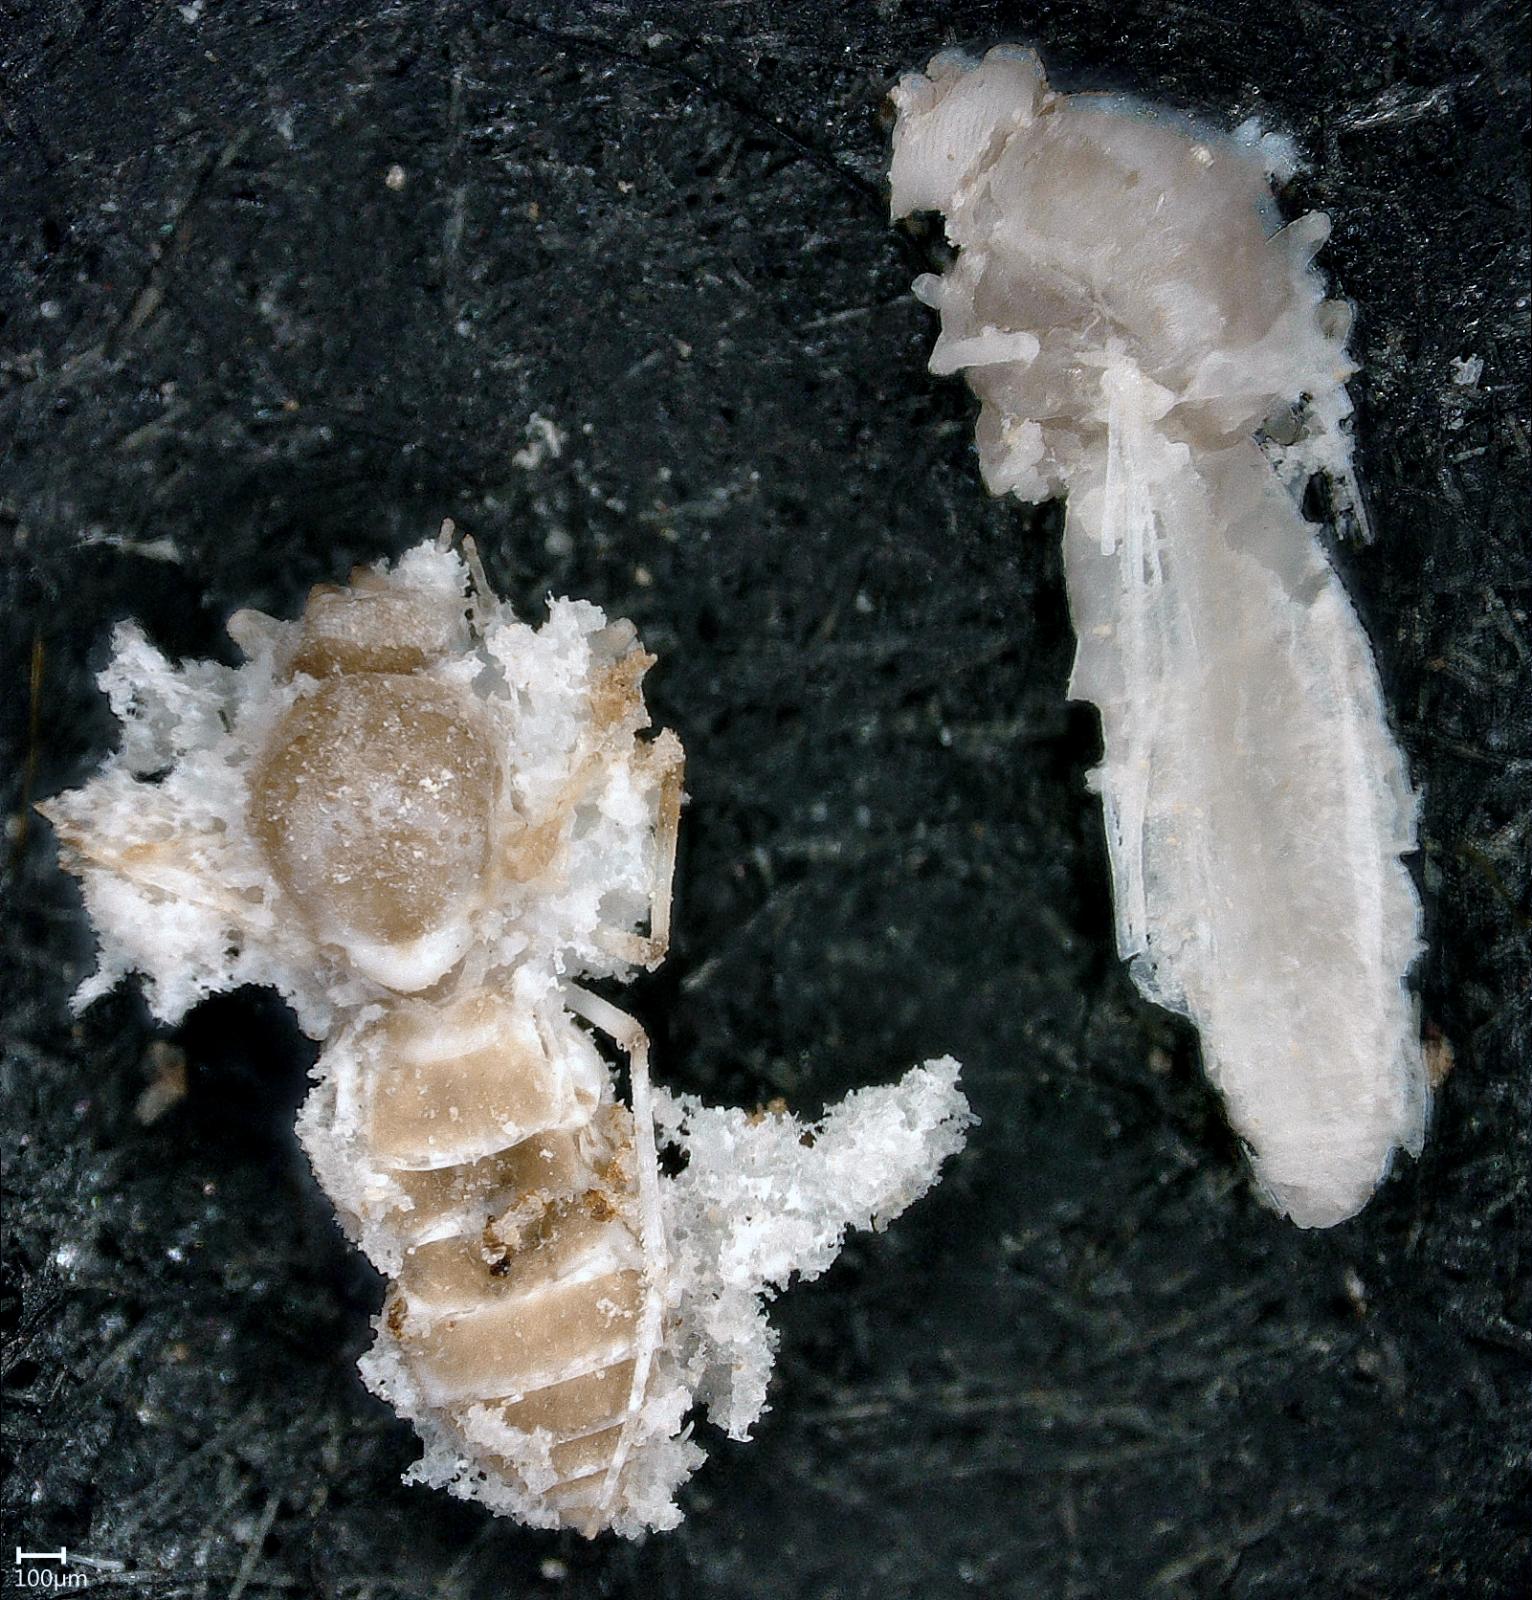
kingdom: Animalia
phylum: Arthropoda
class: Insecta
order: Diptera
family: Ceratopogonidae
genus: Dasyhelea
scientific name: Dasyhelea australia
